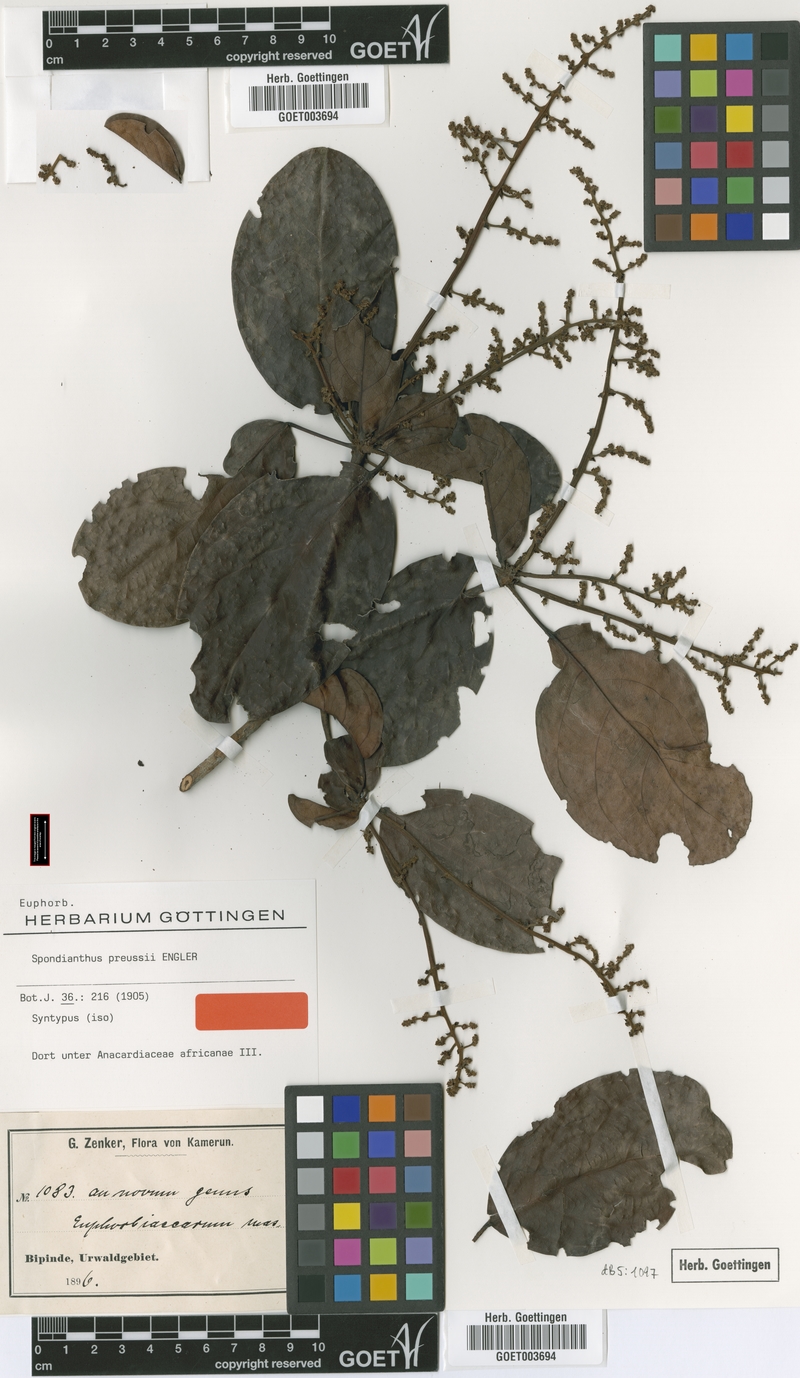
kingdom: Plantae
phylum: Tracheophyta
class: Magnoliopsida
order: Malpighiales
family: Phyllanthaceae
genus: Spondianthus
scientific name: Spondianthus preussii
